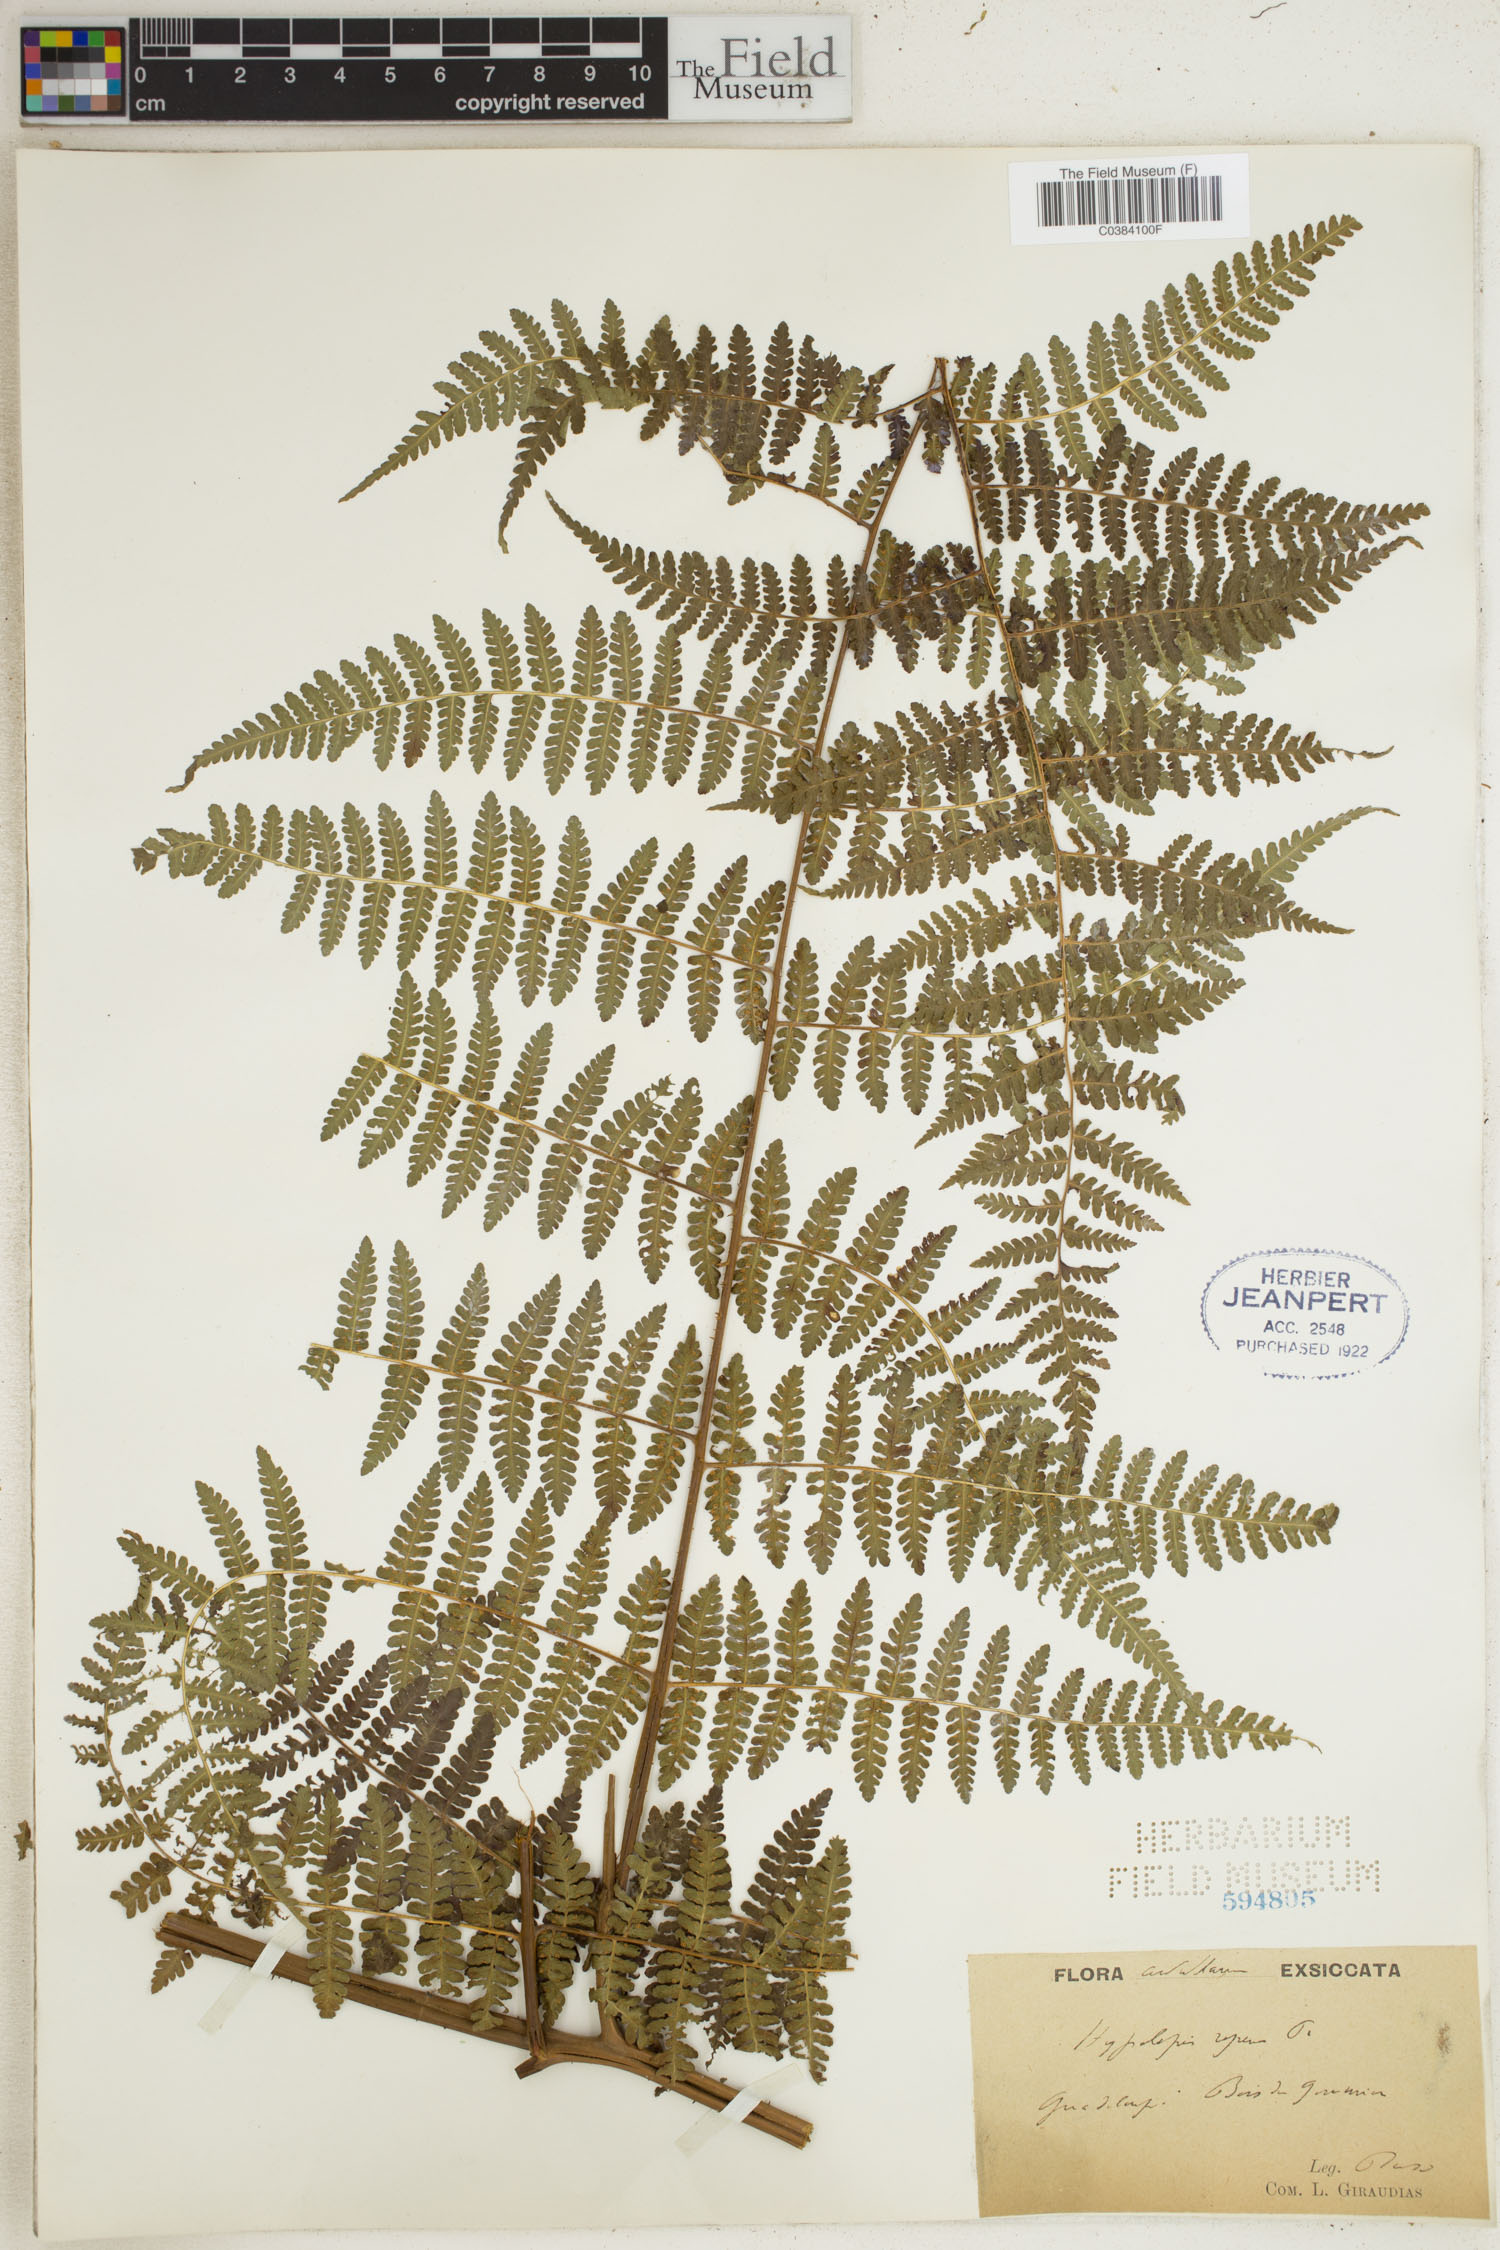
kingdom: Plantae
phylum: Tracheophyta
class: Polypodiopsida
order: Polypodiales
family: Dennstaedtiaceae
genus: Hypolepis
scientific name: Hypolepis repens
